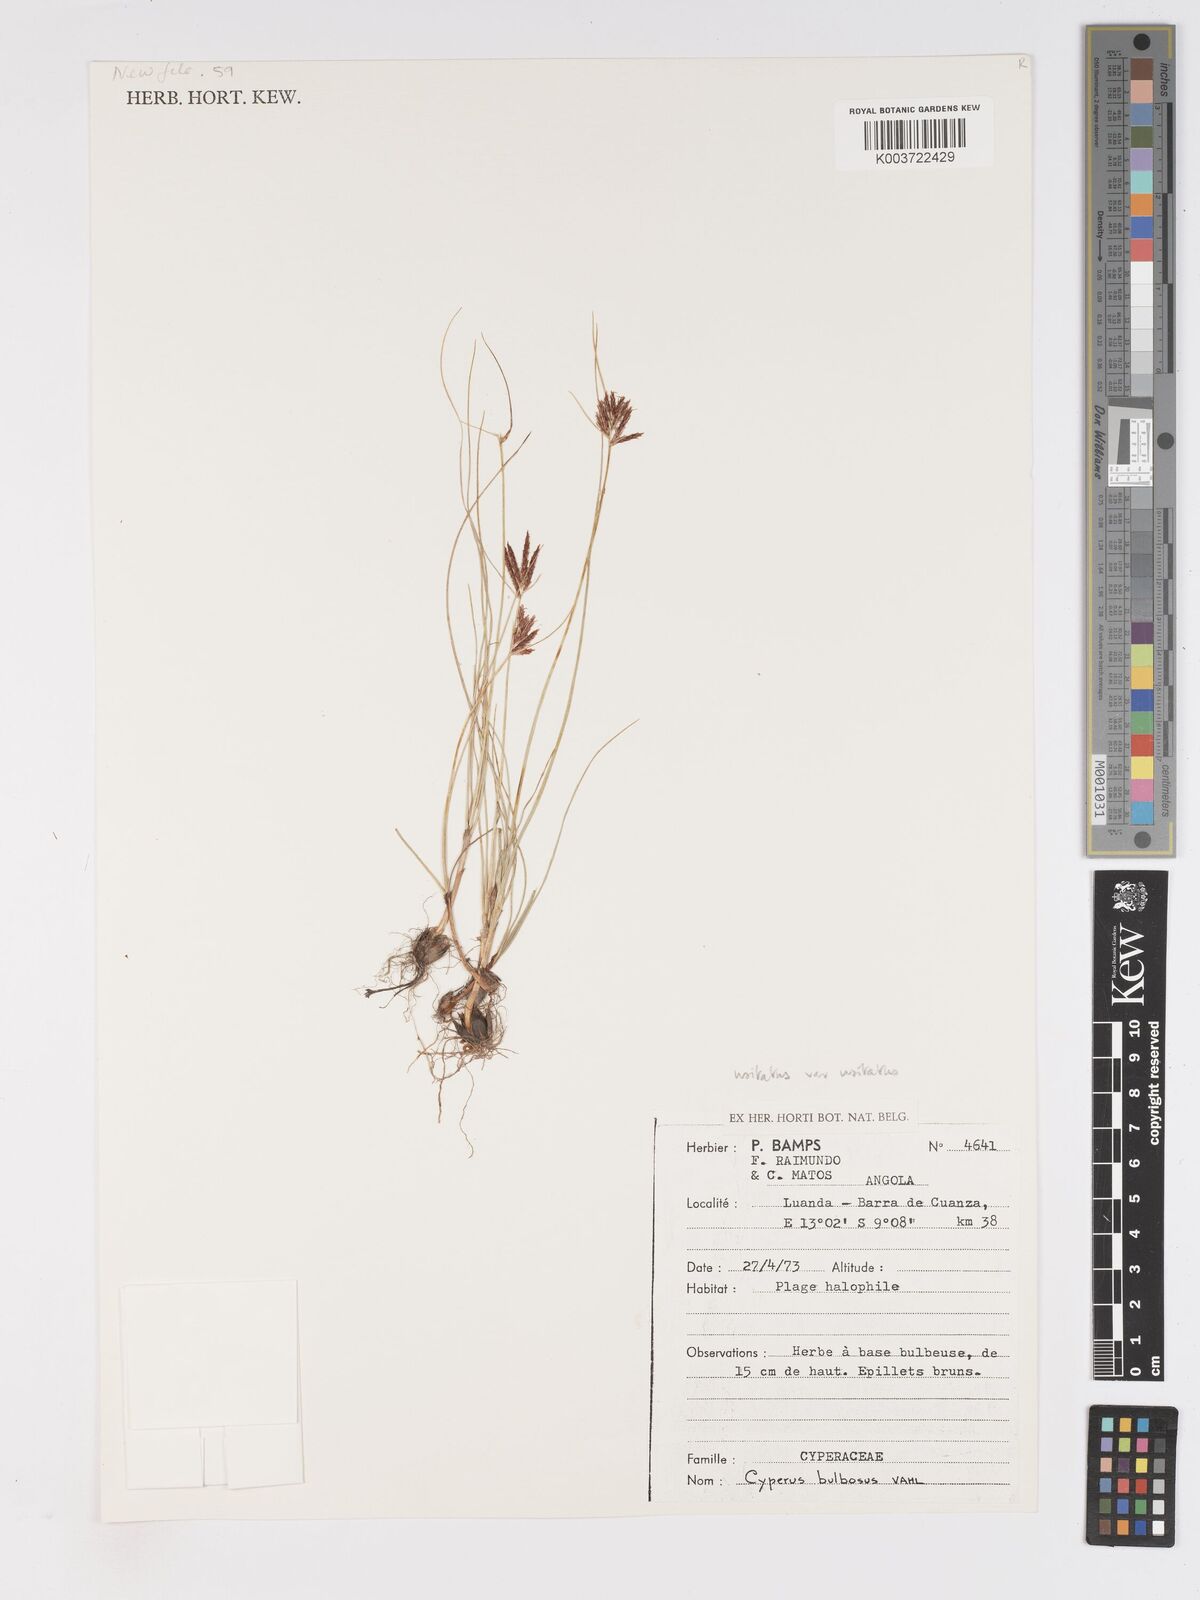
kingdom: Plantae
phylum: Tracheophyta
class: Liliopsida
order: Poales
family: Cyperaceae
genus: Cyperus
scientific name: Cyperus bulbosus
